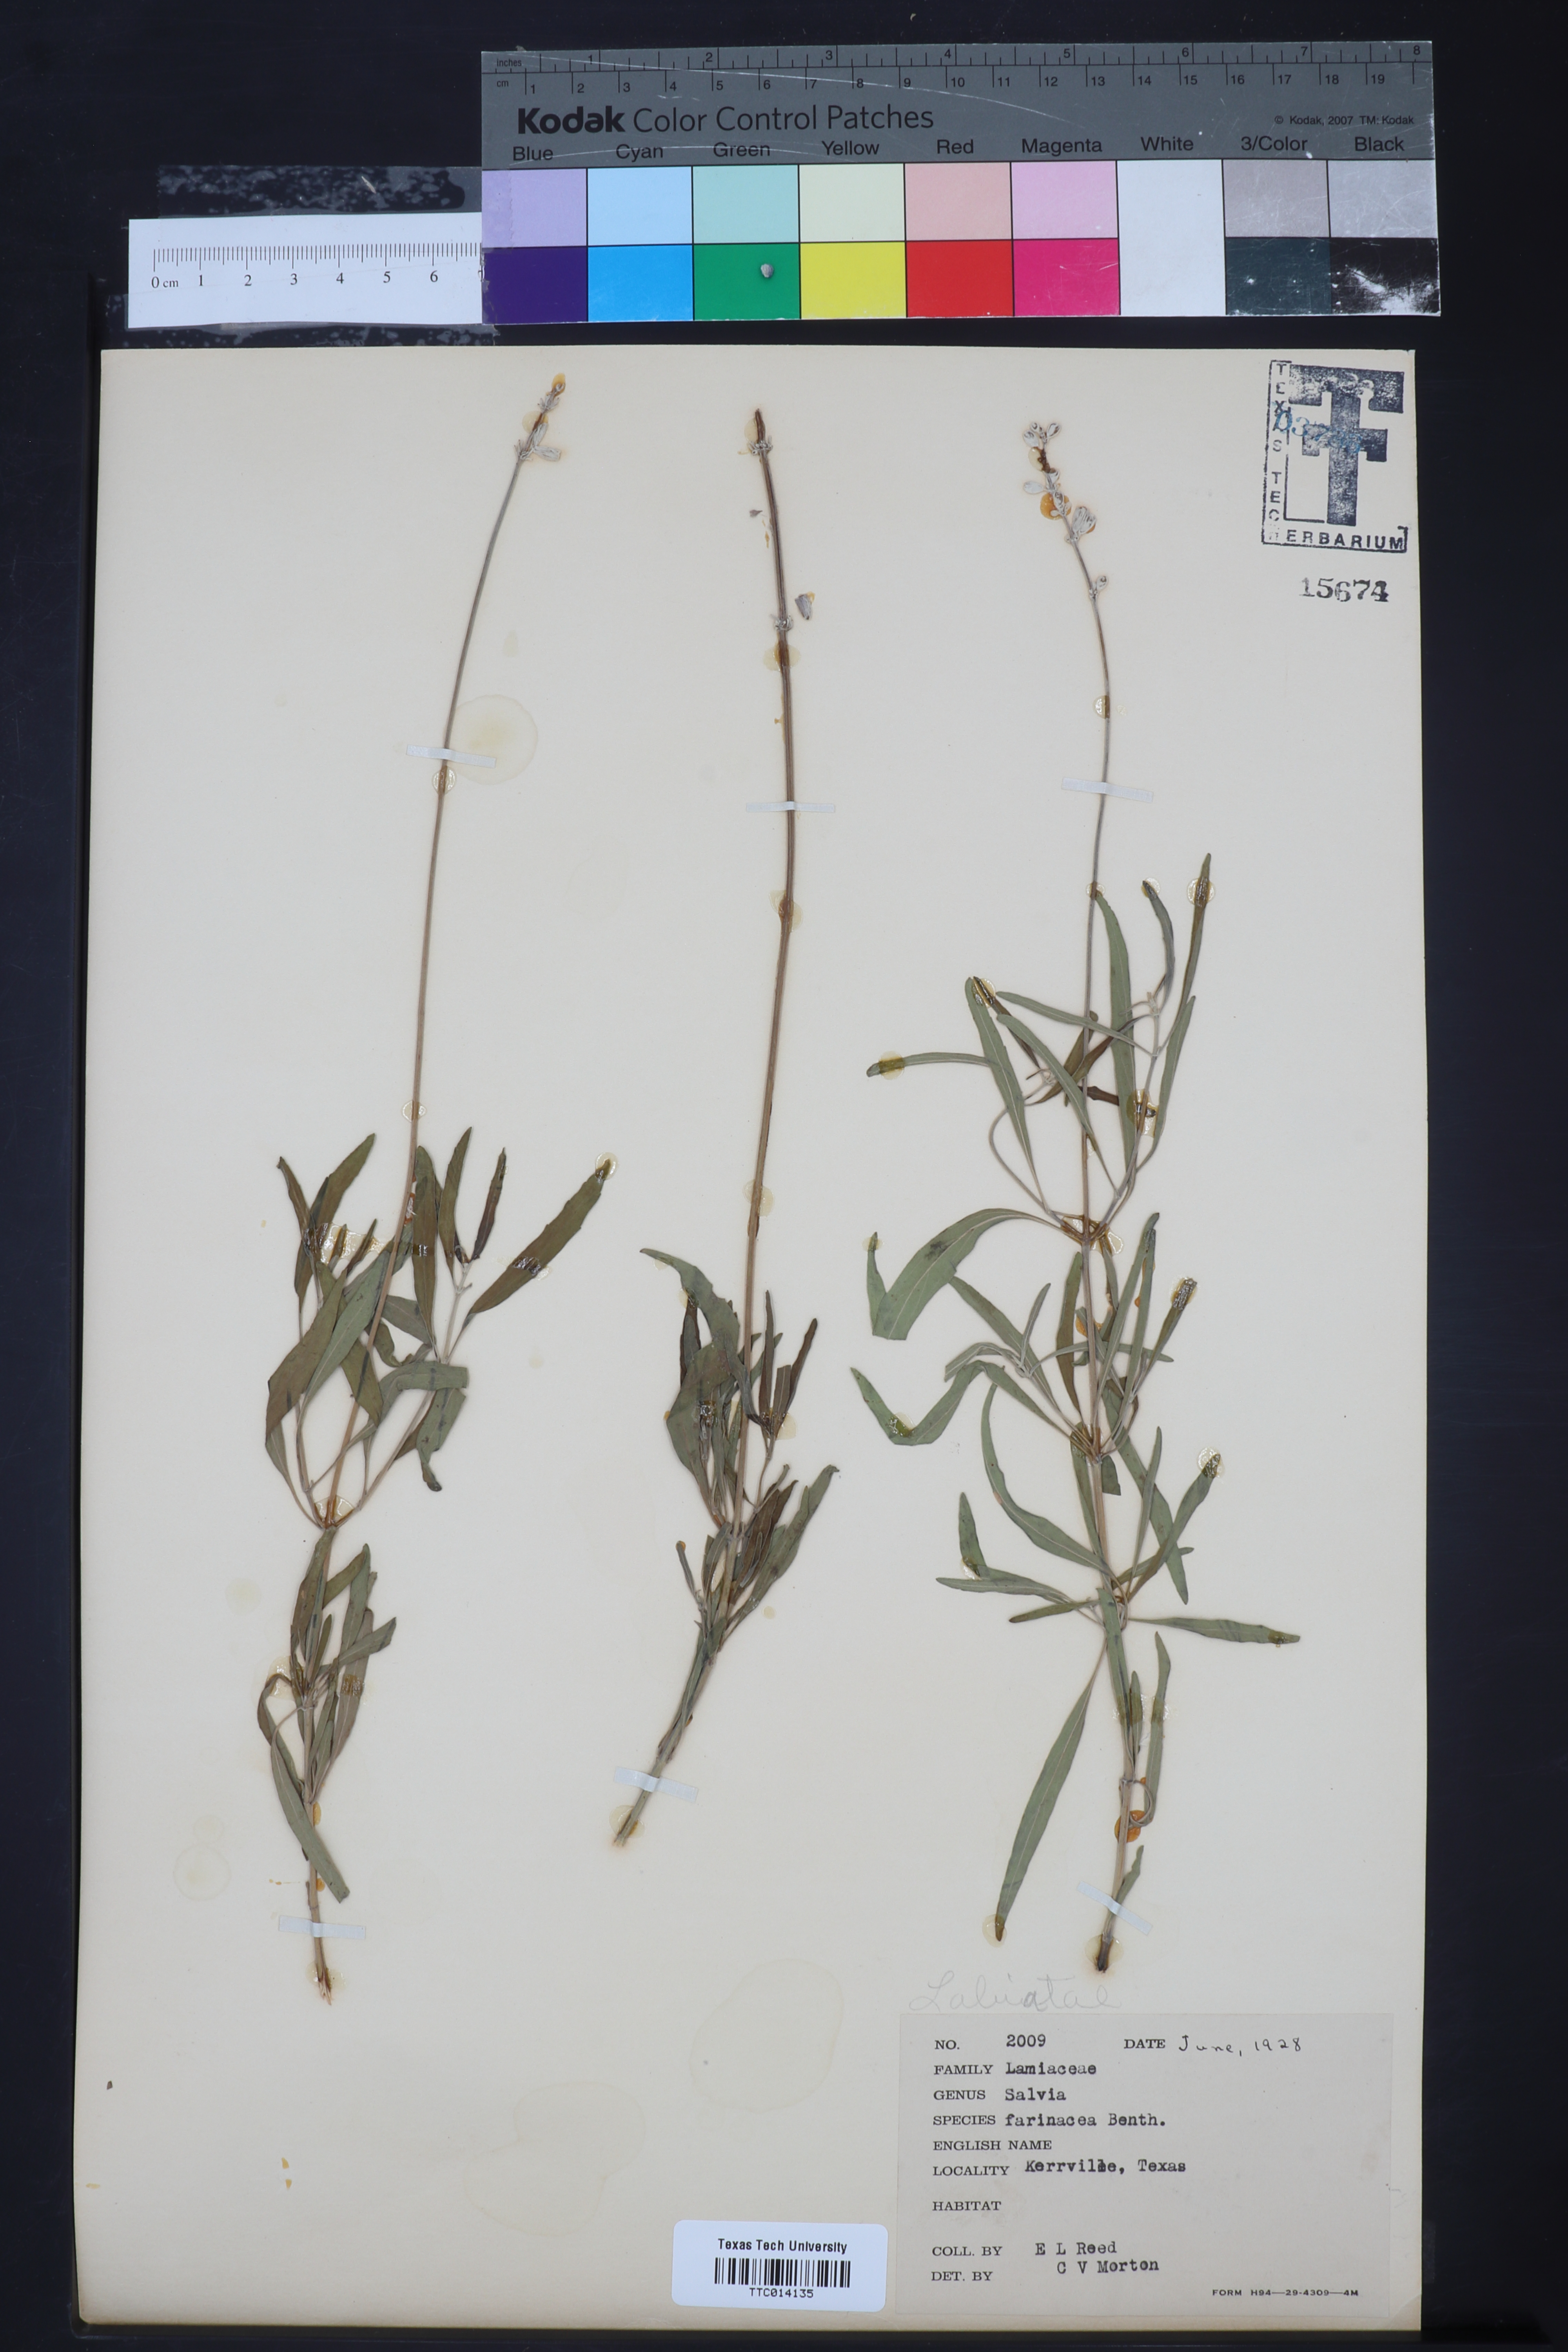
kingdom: Plantae
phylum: Tracheophyta
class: Magnoliopsida
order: Lamiales
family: Lamiaceae
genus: Salvia
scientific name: Salvia farinacea
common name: Mealy sage
